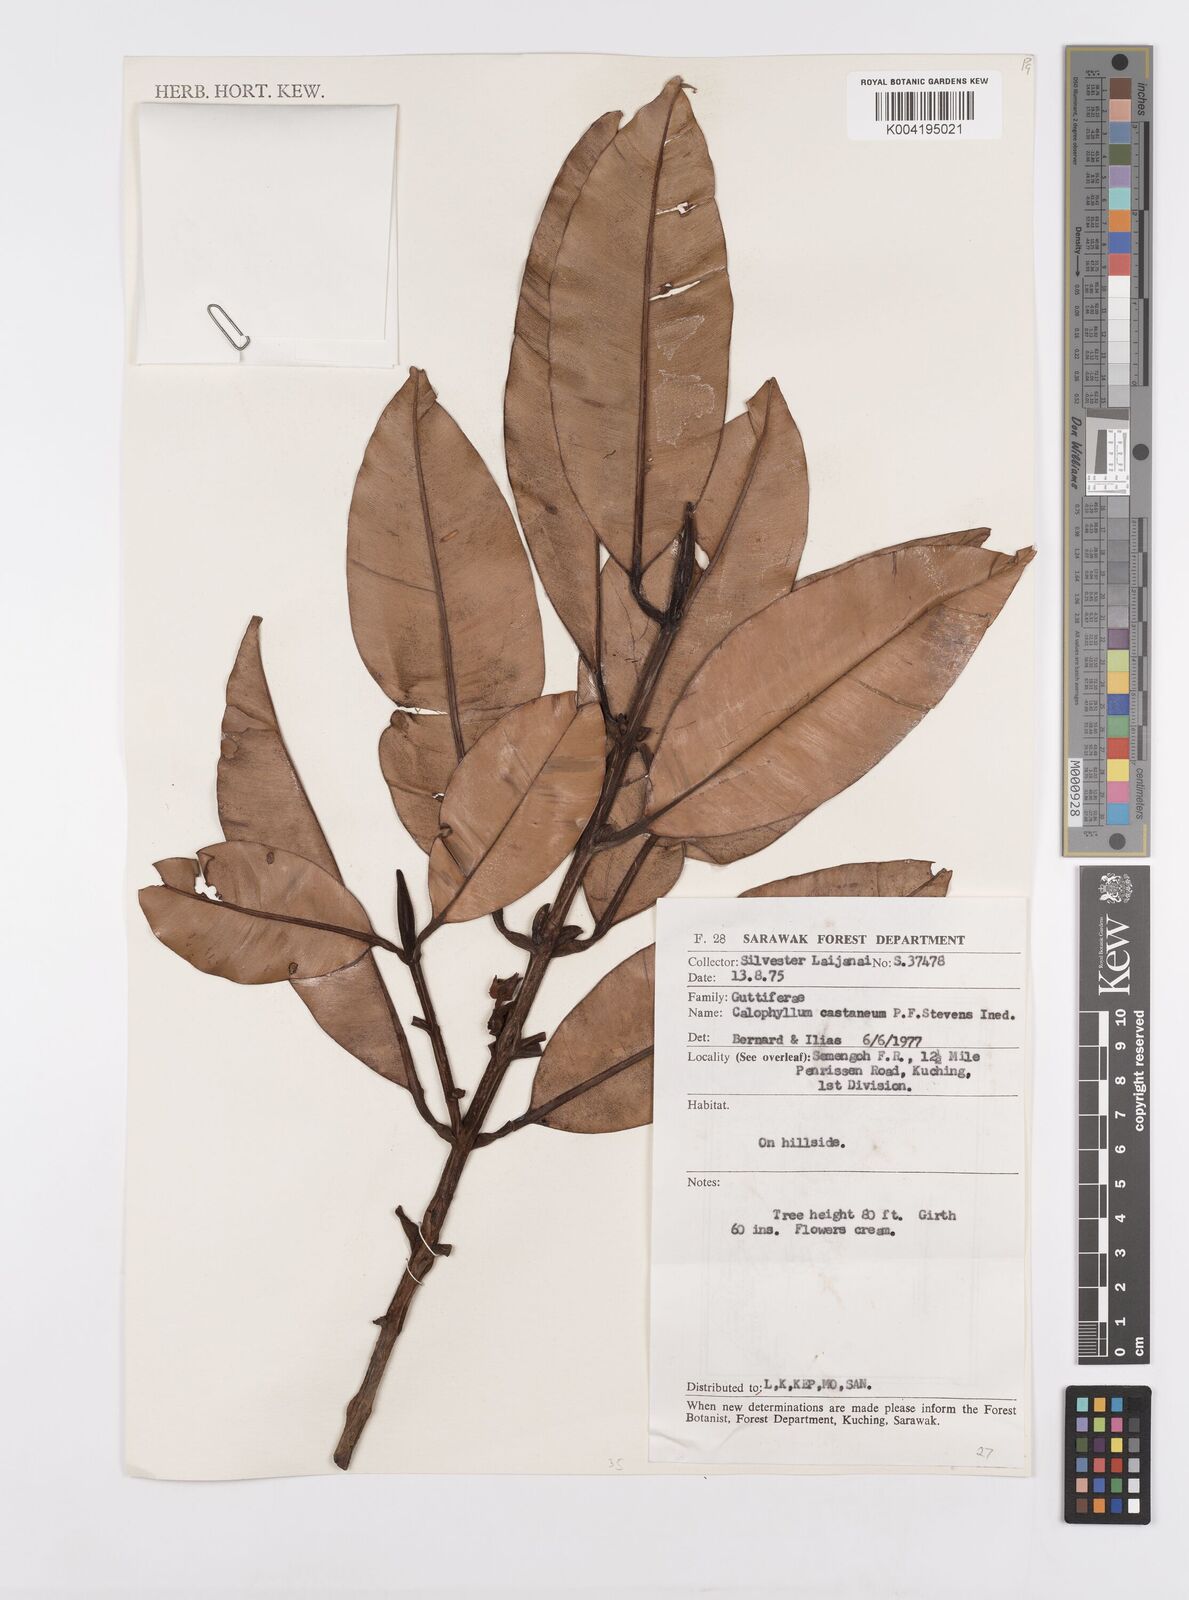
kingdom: Plantae
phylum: Tracheophyta
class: Magnoliopsida
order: Malpighiales
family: Calophyllaceae
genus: Calophyllum
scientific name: Calophyllum castaneum
